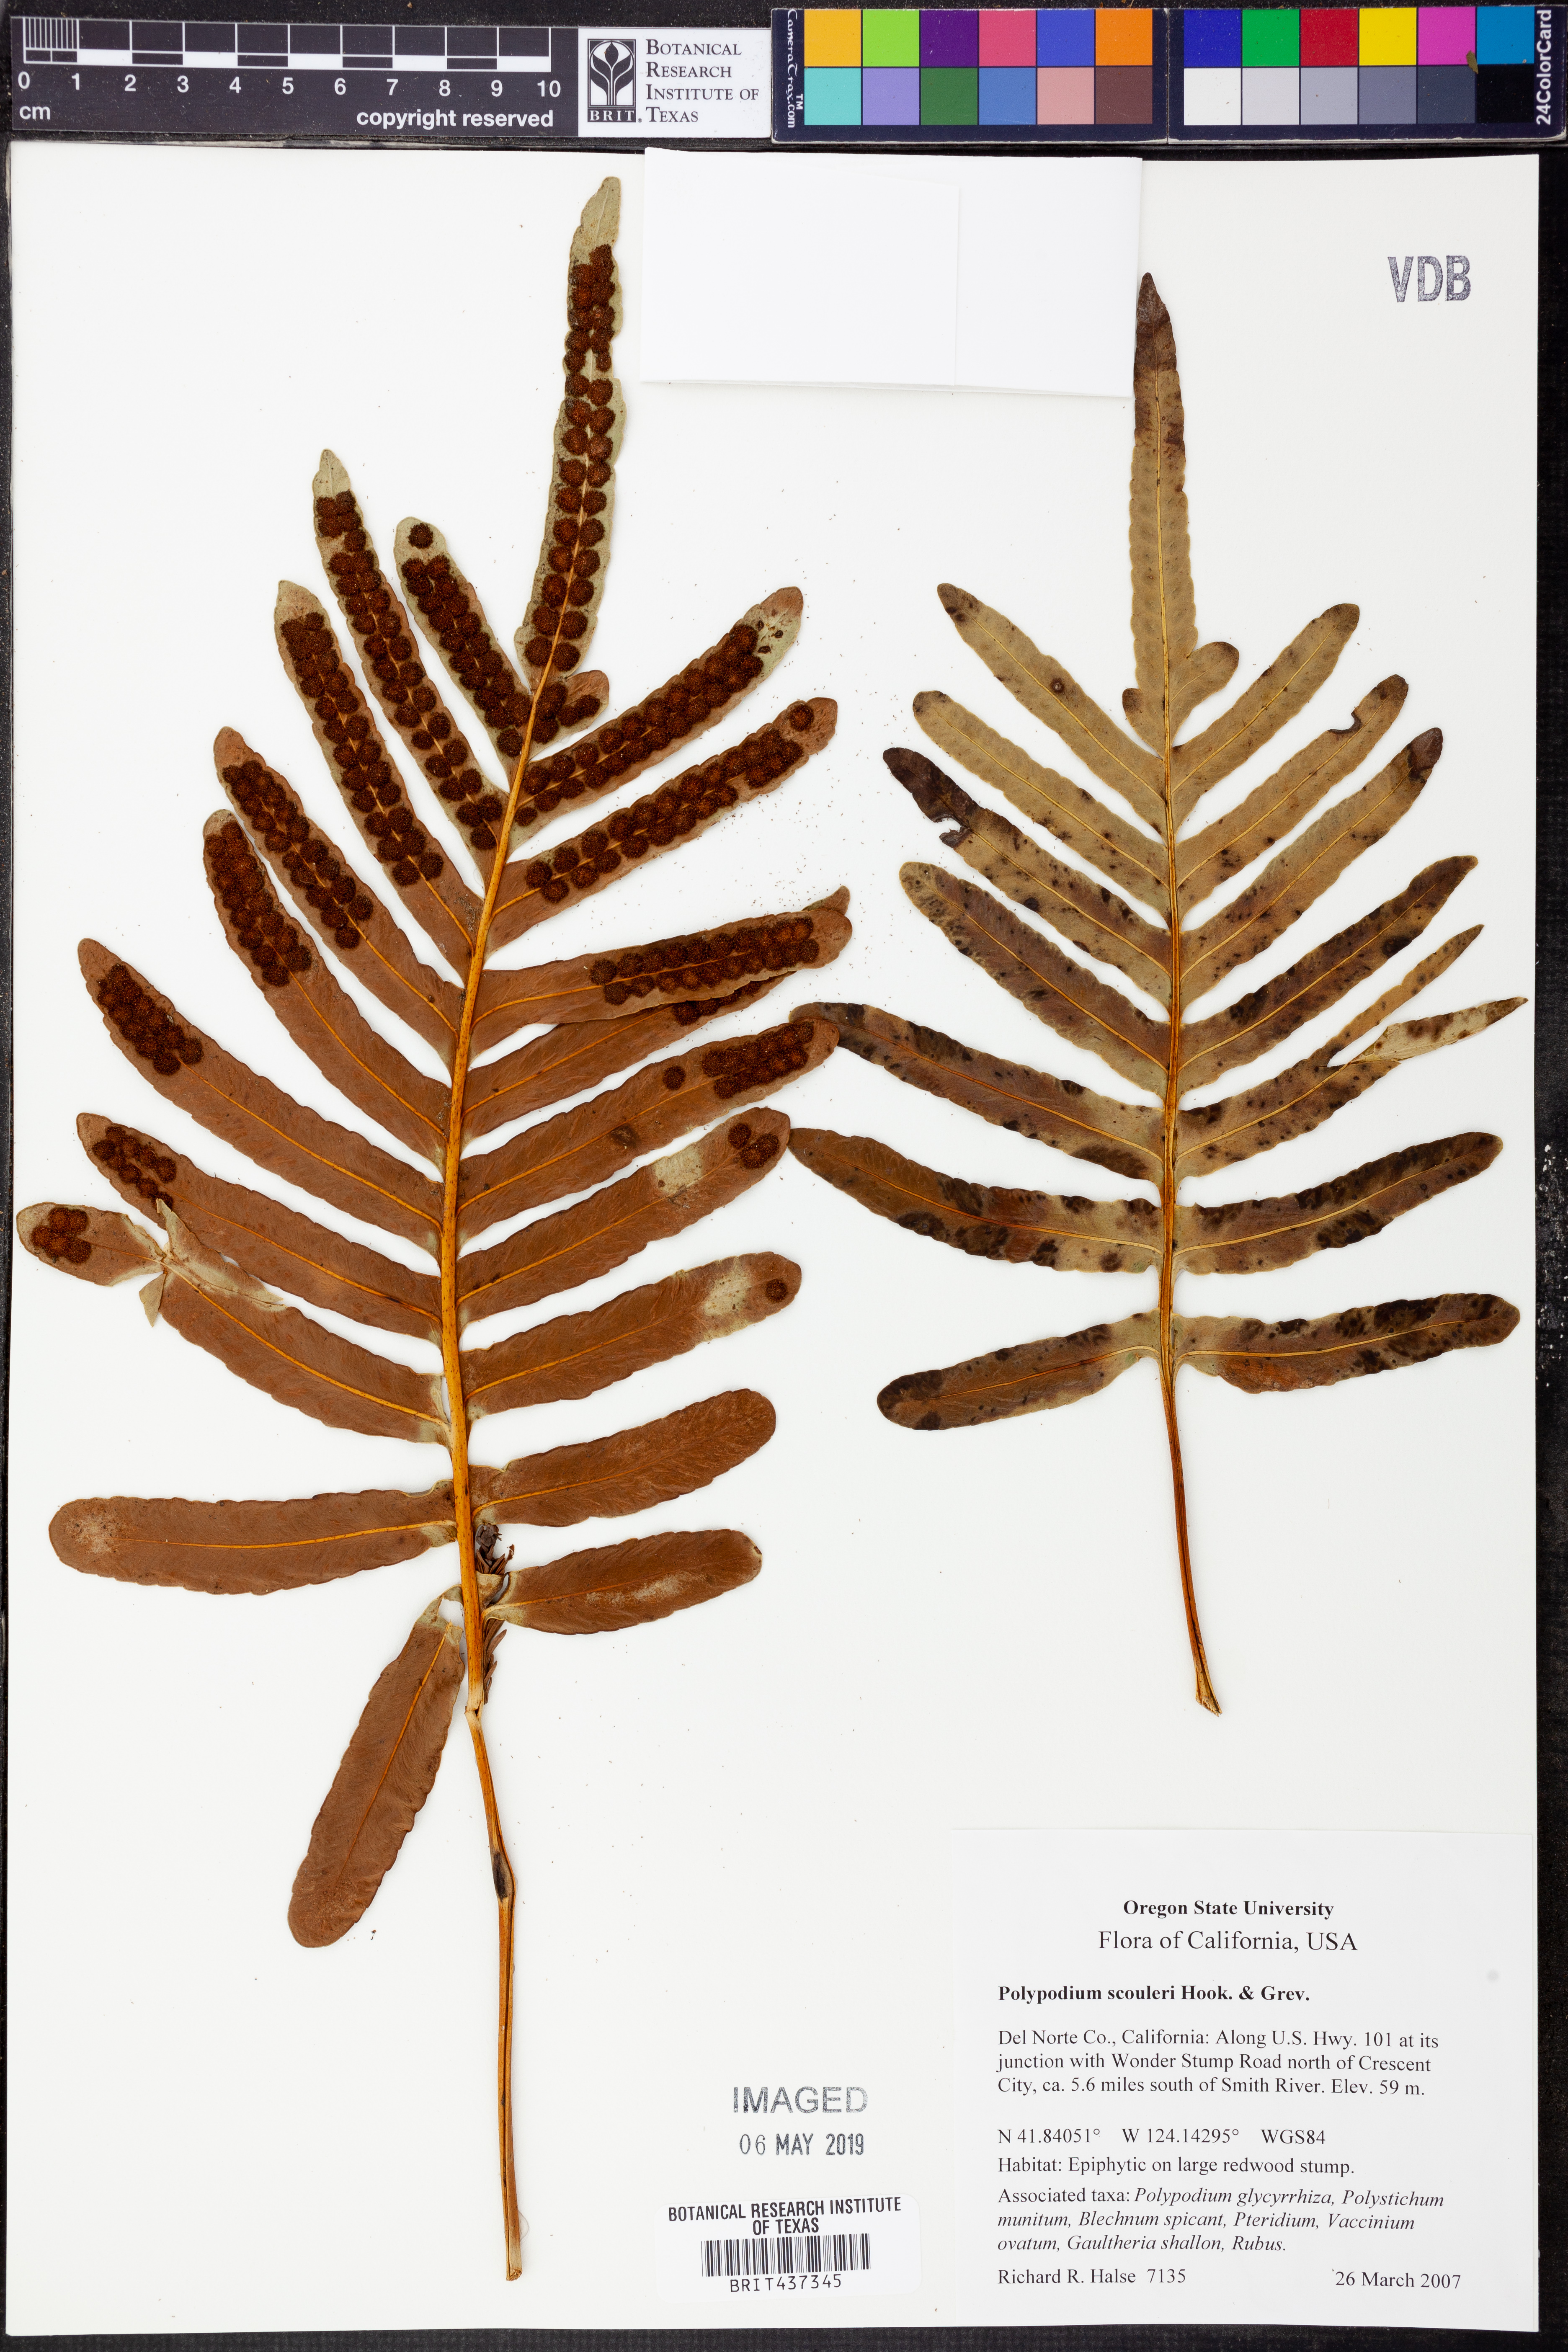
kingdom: Plantae
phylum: Tracheophyta
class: Polypodiopsida
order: Polypodiales
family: Polypodiaceae
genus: Polypodium
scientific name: Polypodium scouleri
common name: Scouler's polypody
